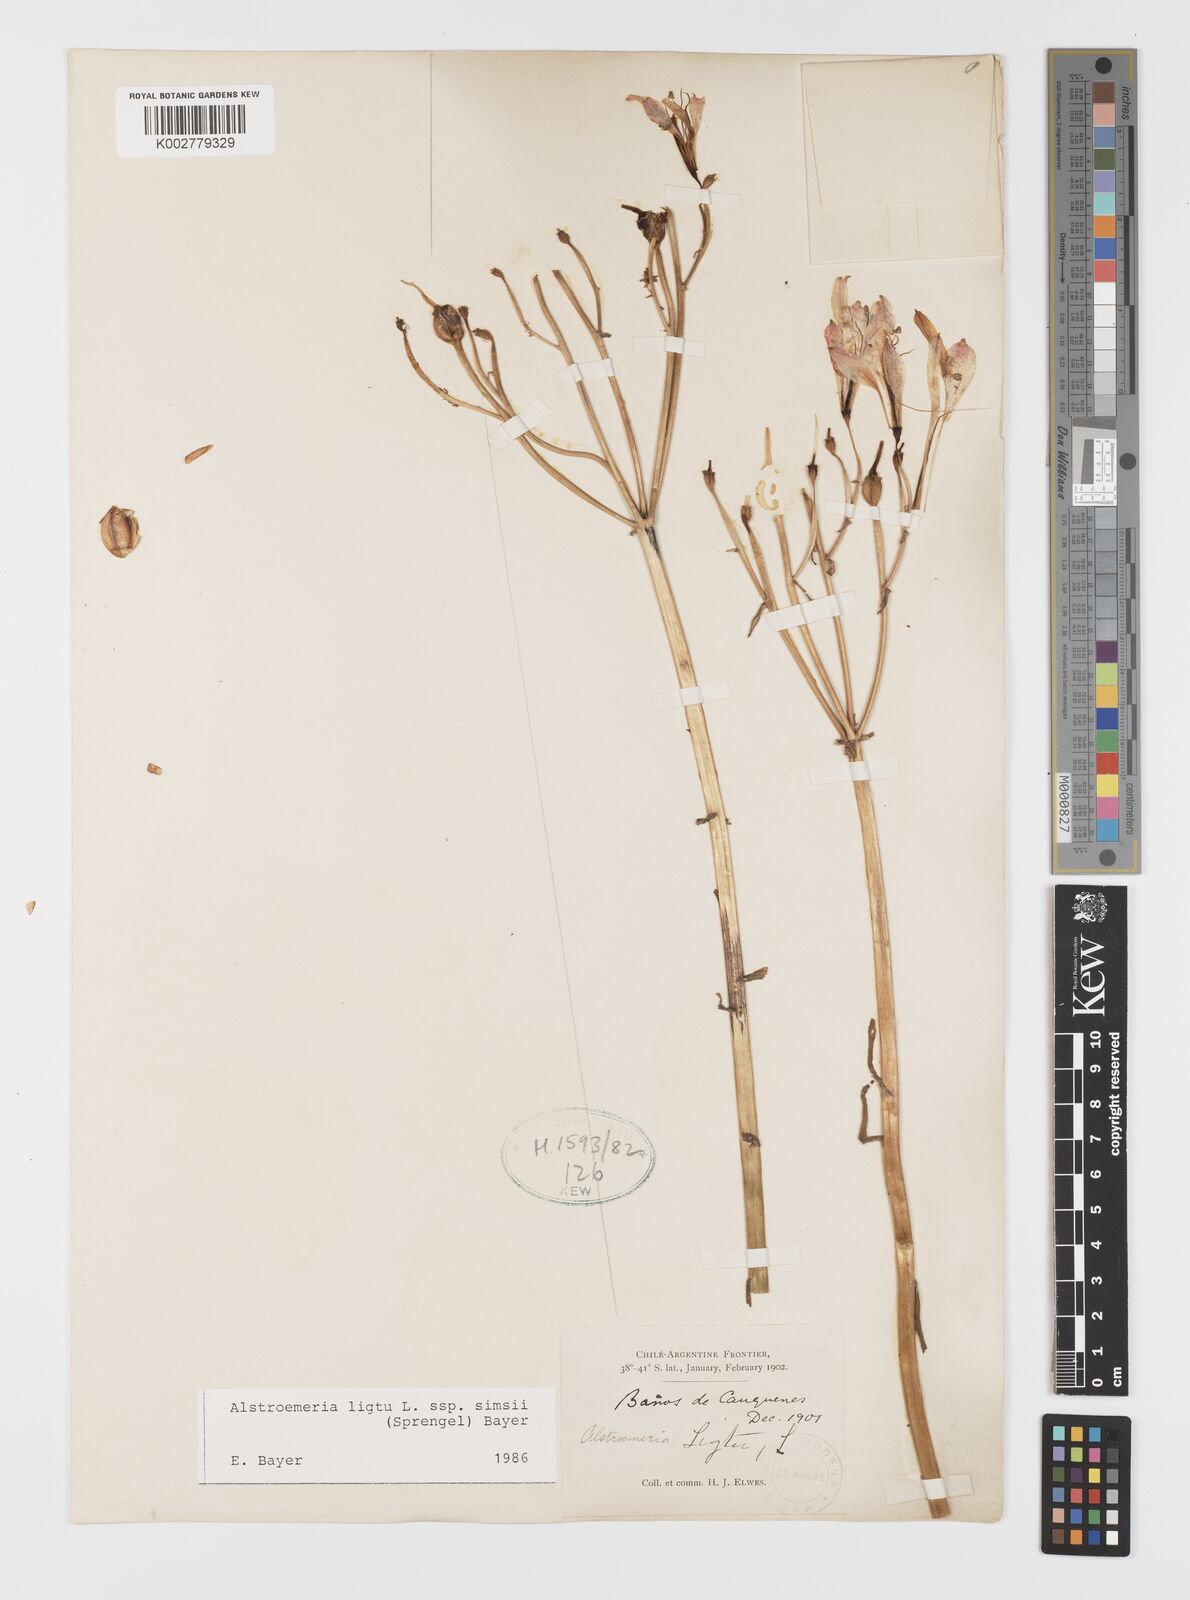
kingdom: Plantae
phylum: Tracheophyta
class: Liliopsida
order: Liliales
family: Alstroemeriaceae
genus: Alstroemeria
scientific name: Alstroemeria ligtu
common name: St. martin's-flower
